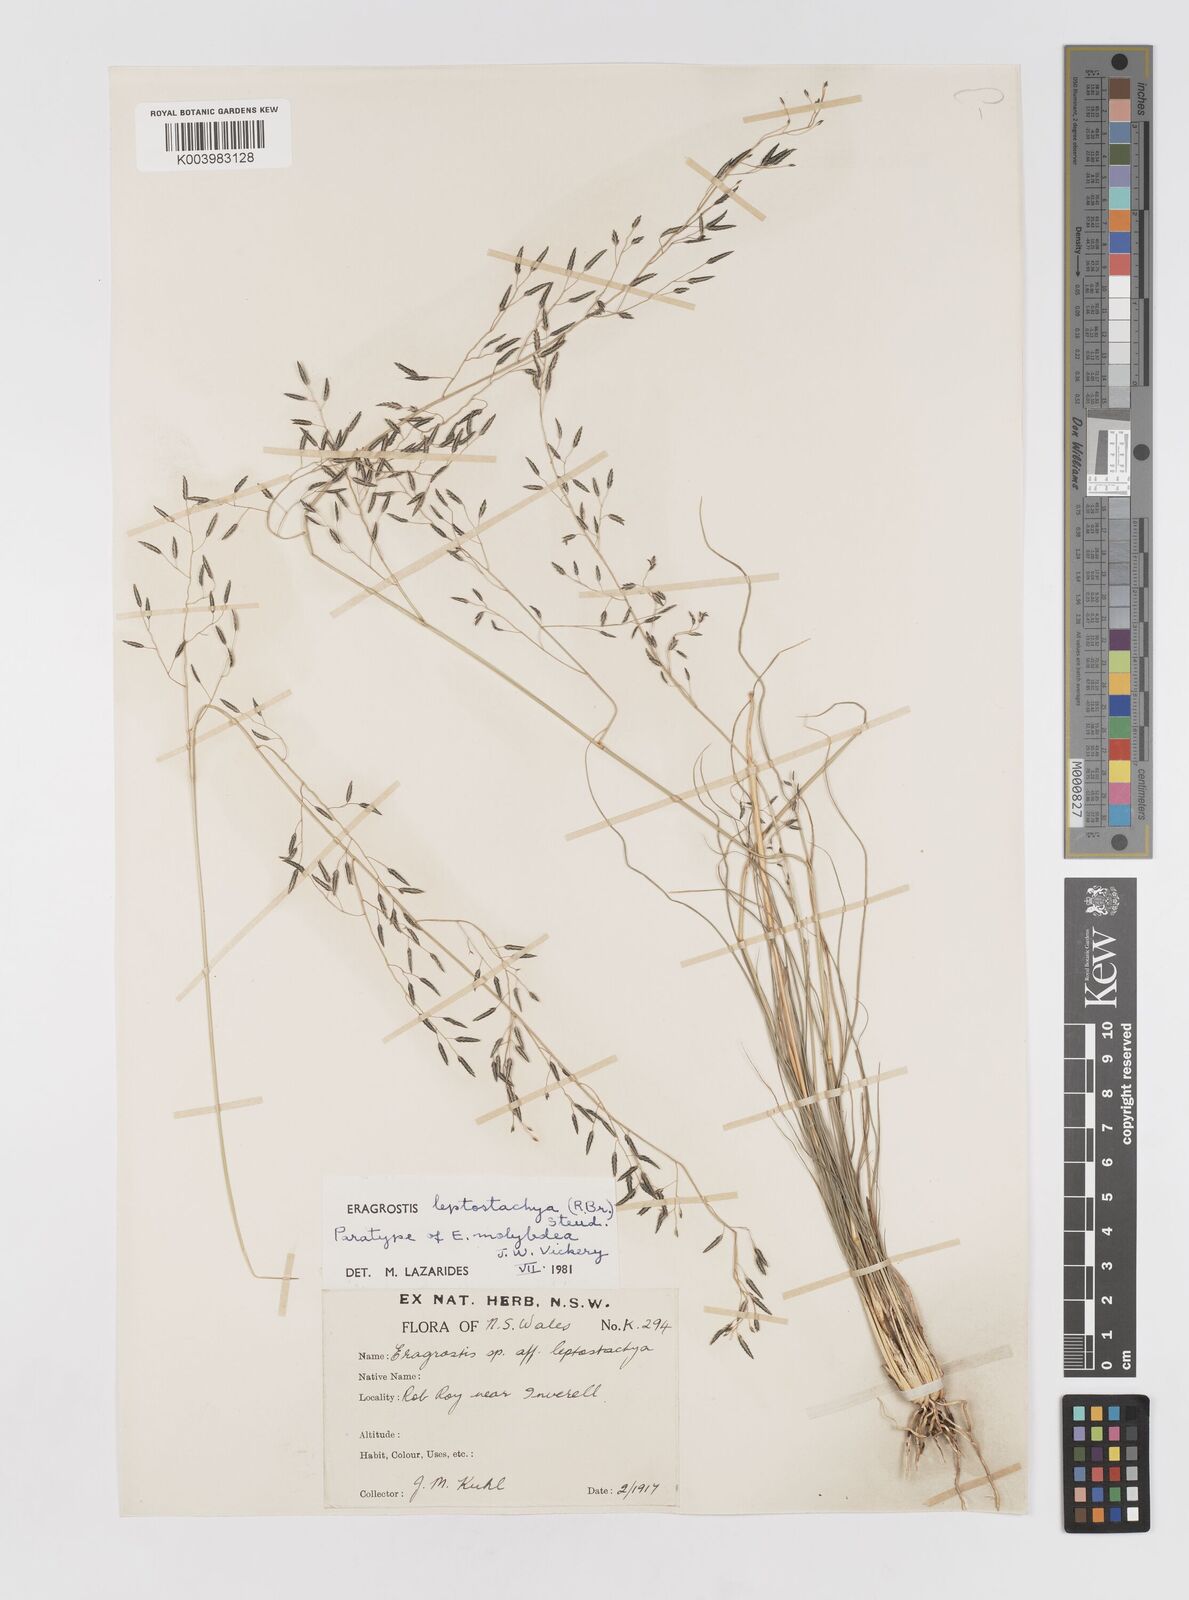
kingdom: Plantae
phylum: Tracheophyta
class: Liliopsida
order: Poales
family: Poaceae
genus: Eragrostis
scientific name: Eragrostis leptostachya
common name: Australian lovegrass
